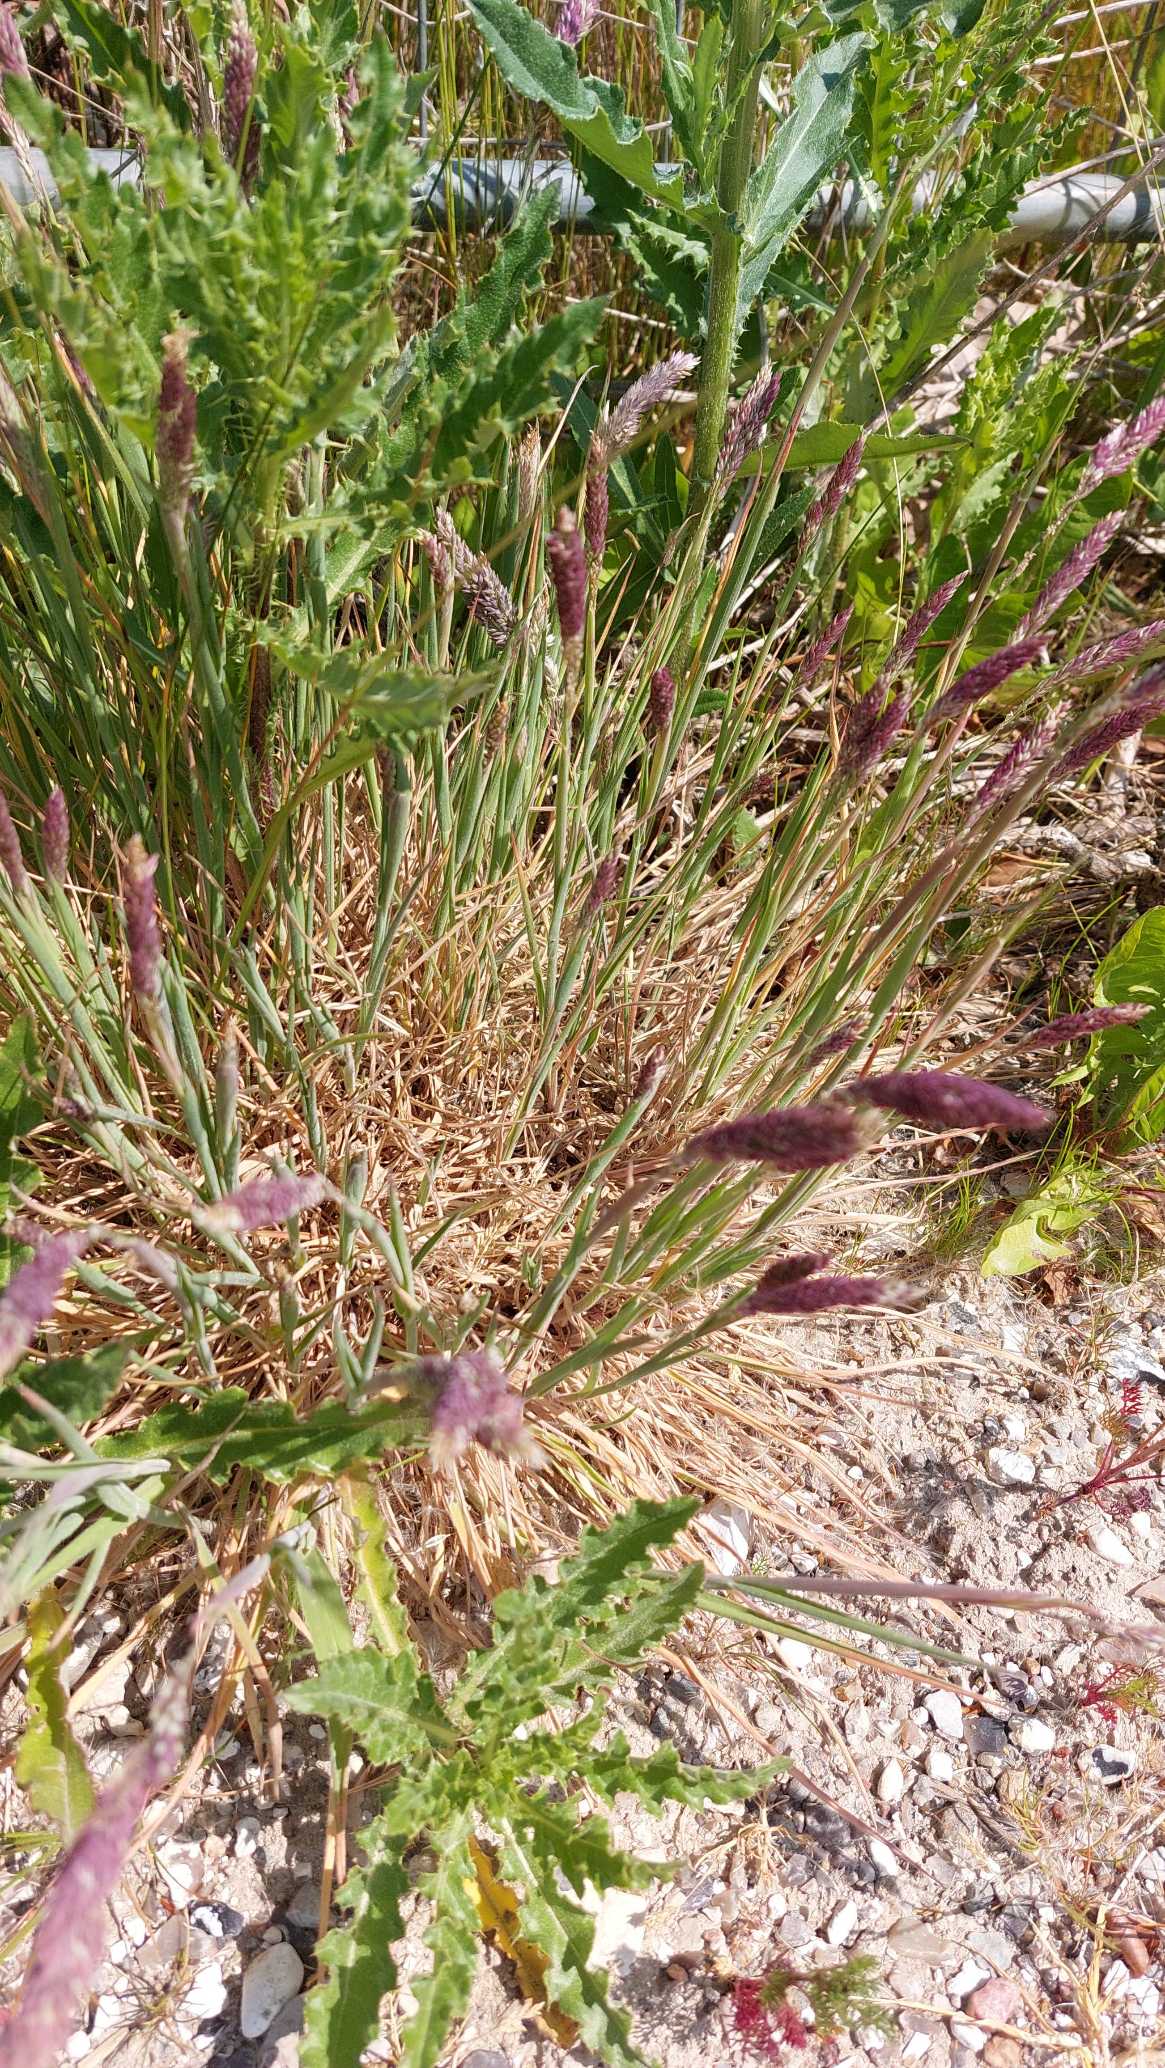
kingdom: Plantae
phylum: Tracheophyta
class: Liliopsida
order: Poales
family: Poaceae
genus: Holcus
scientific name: Holcus lanatus
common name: Fløjlsgræs
